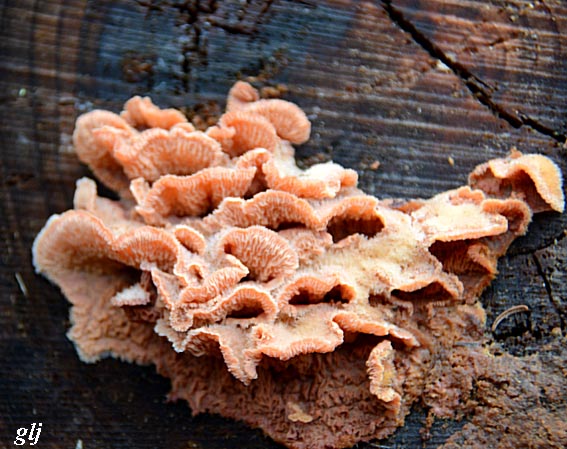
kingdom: Fungi
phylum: Basidiomycota
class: Agaricomycetes
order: Polyporales
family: Meruliaceae
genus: Phlebia
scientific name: Phlebia tremellosa
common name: bævrende åresvamp
